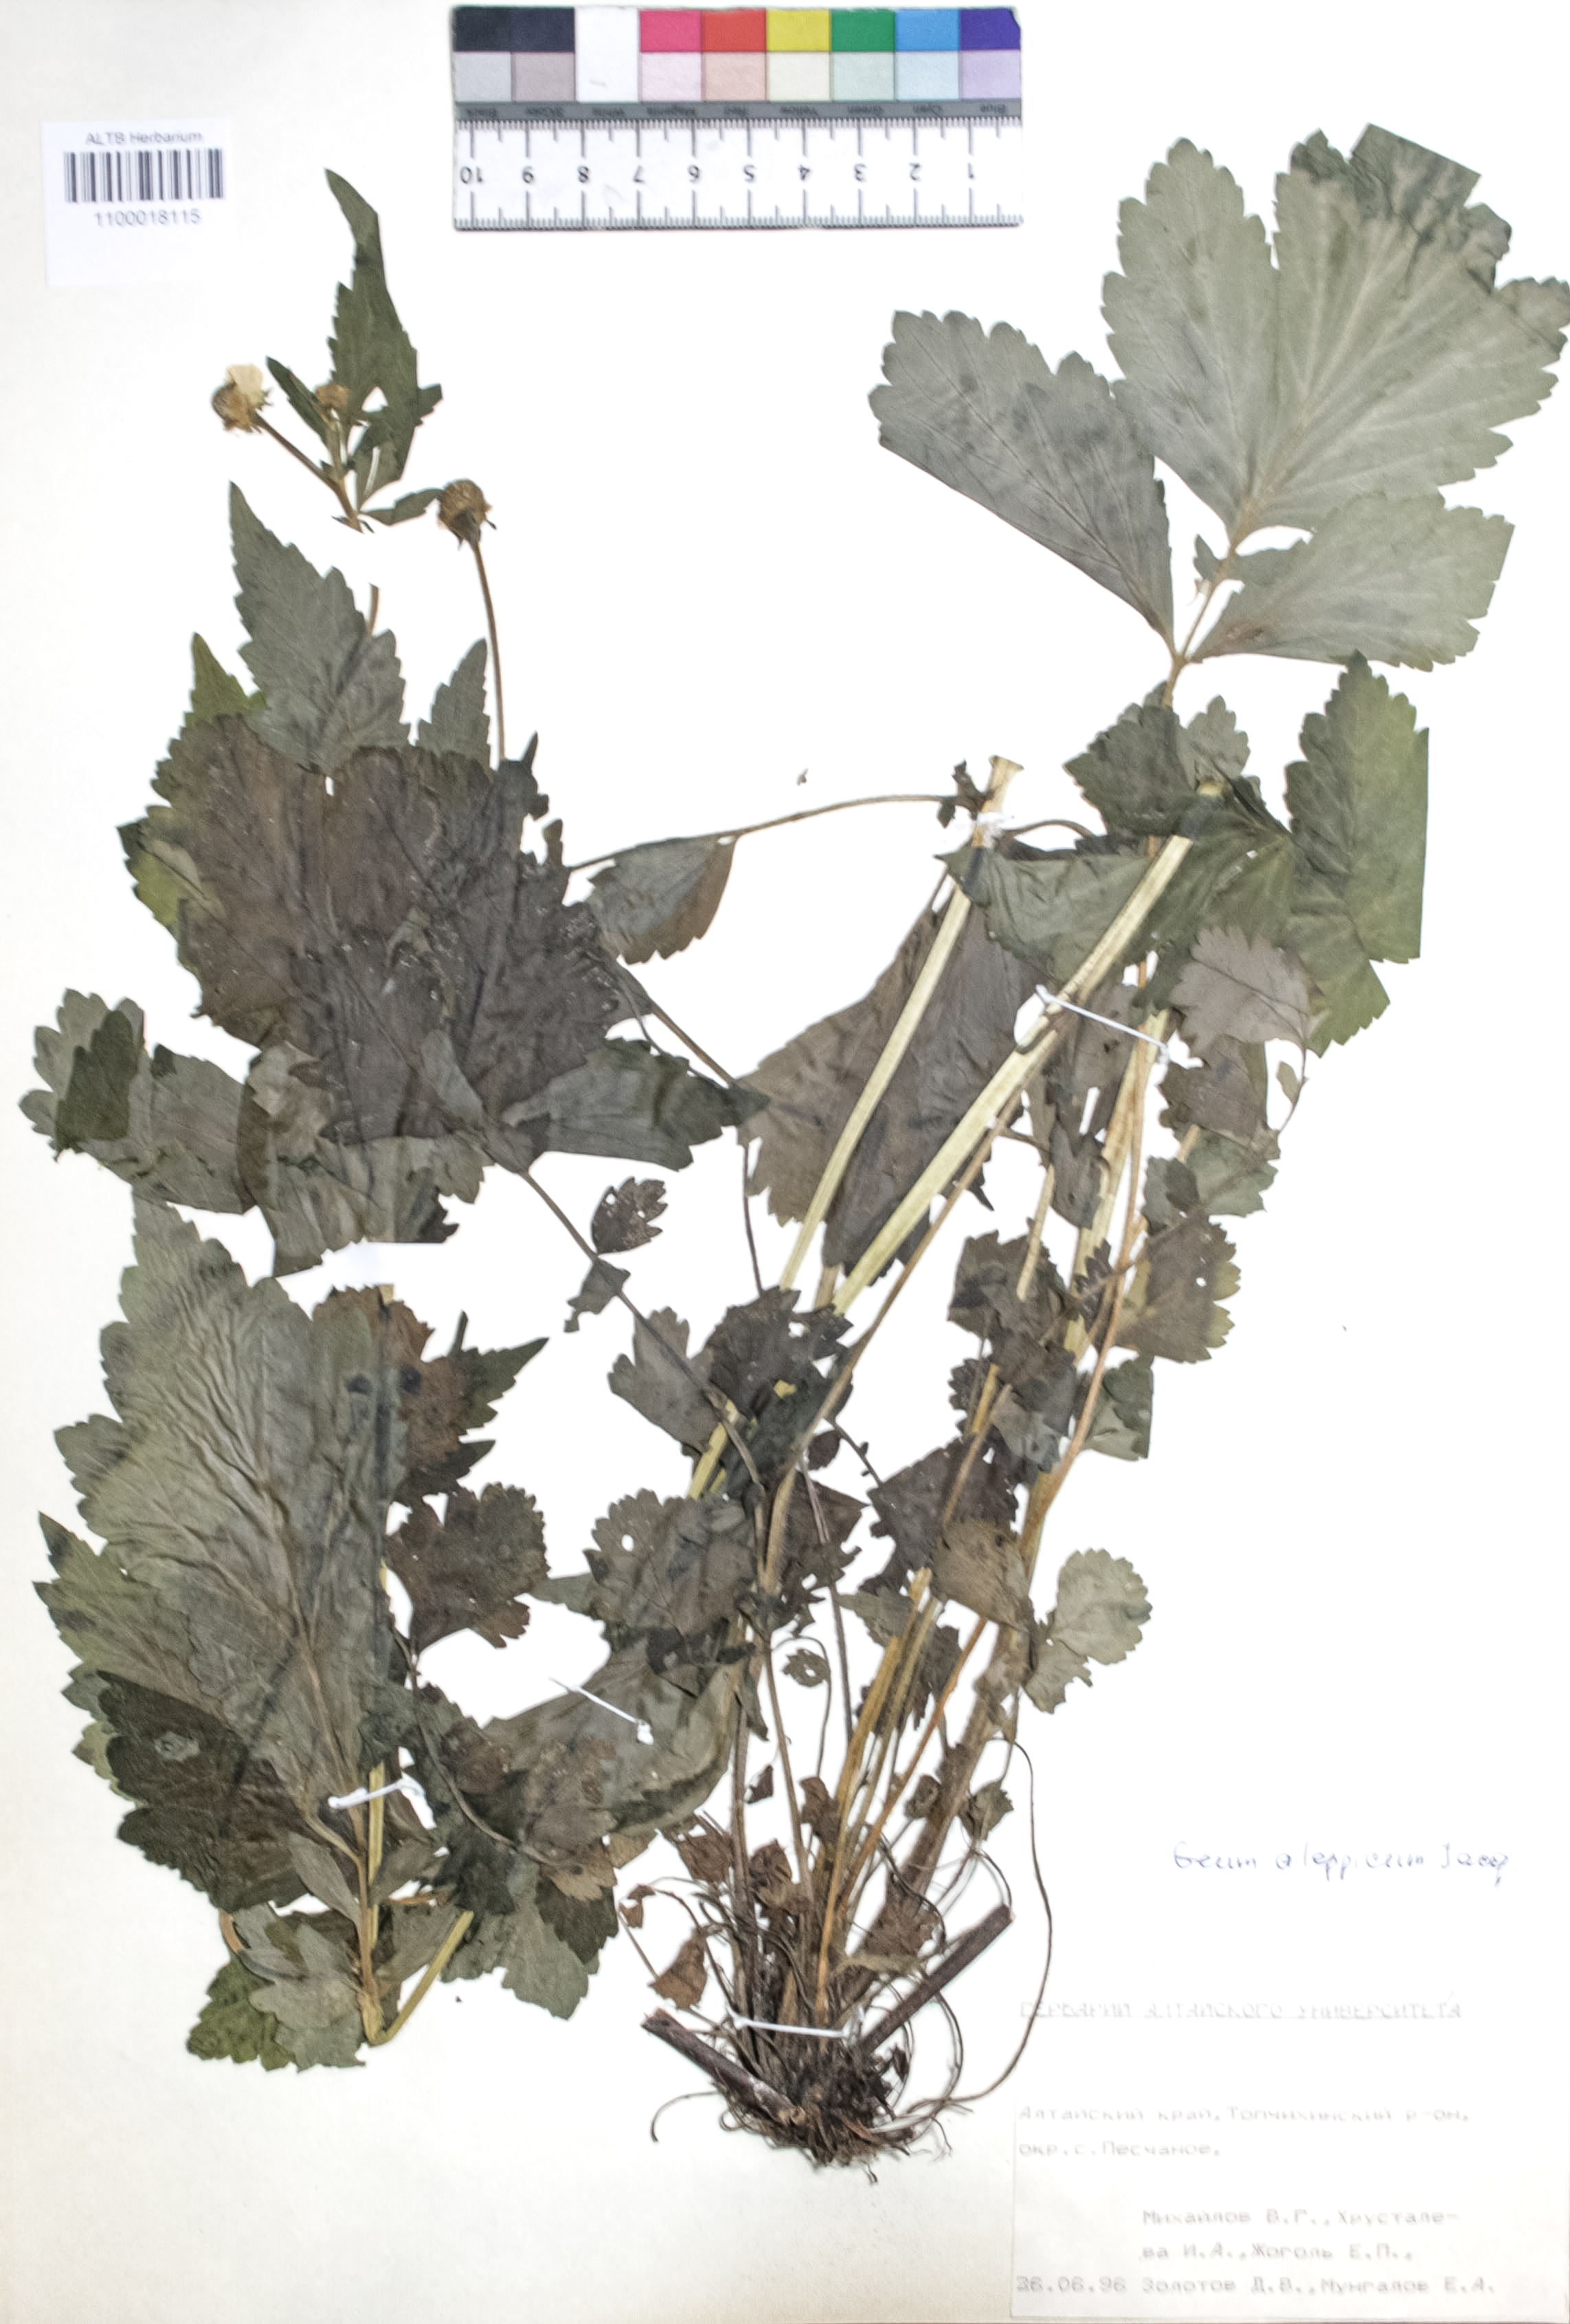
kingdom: Plantae
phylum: Tracheophyta
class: Magnoliopsida
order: Rosales
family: Rosaceae
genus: Geum
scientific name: Geum aleppicum
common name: Yellow avens
